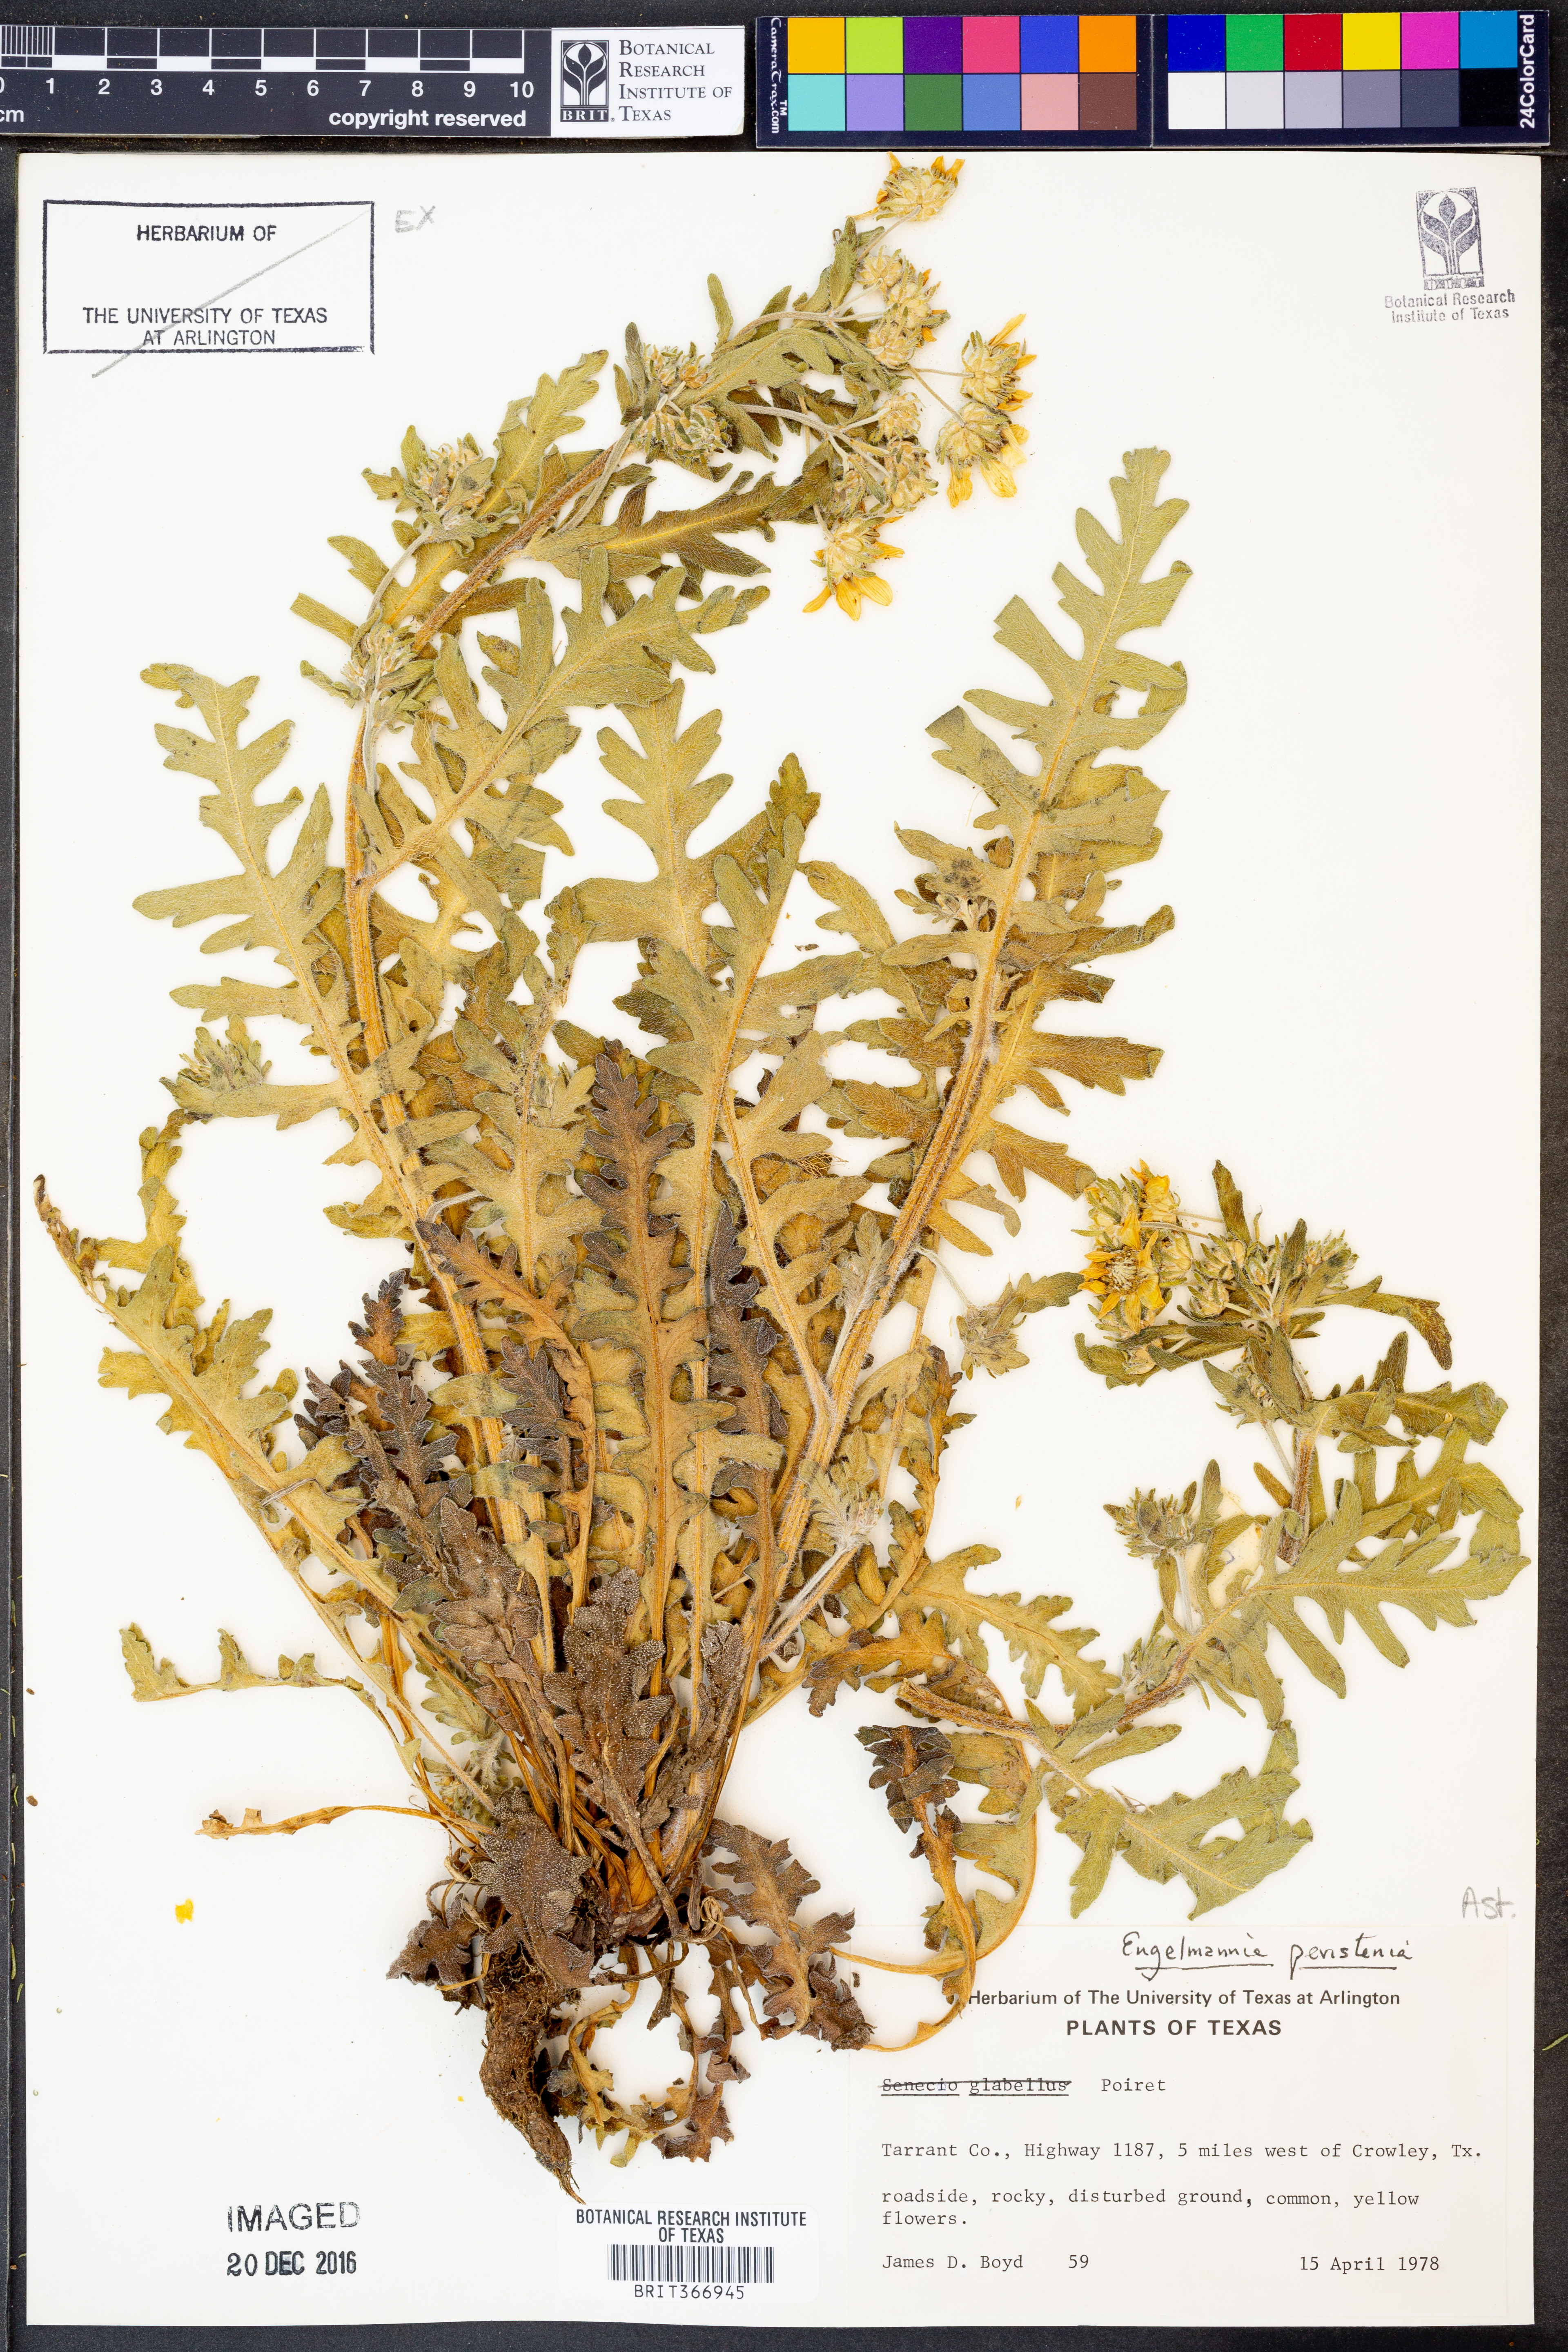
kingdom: Plantae
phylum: Tracheophyta
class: Magnoliopsida
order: Asterales
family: Asteraceae
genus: Engelmannia
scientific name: Engelmannia peristenia
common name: Engelmann's daisy
